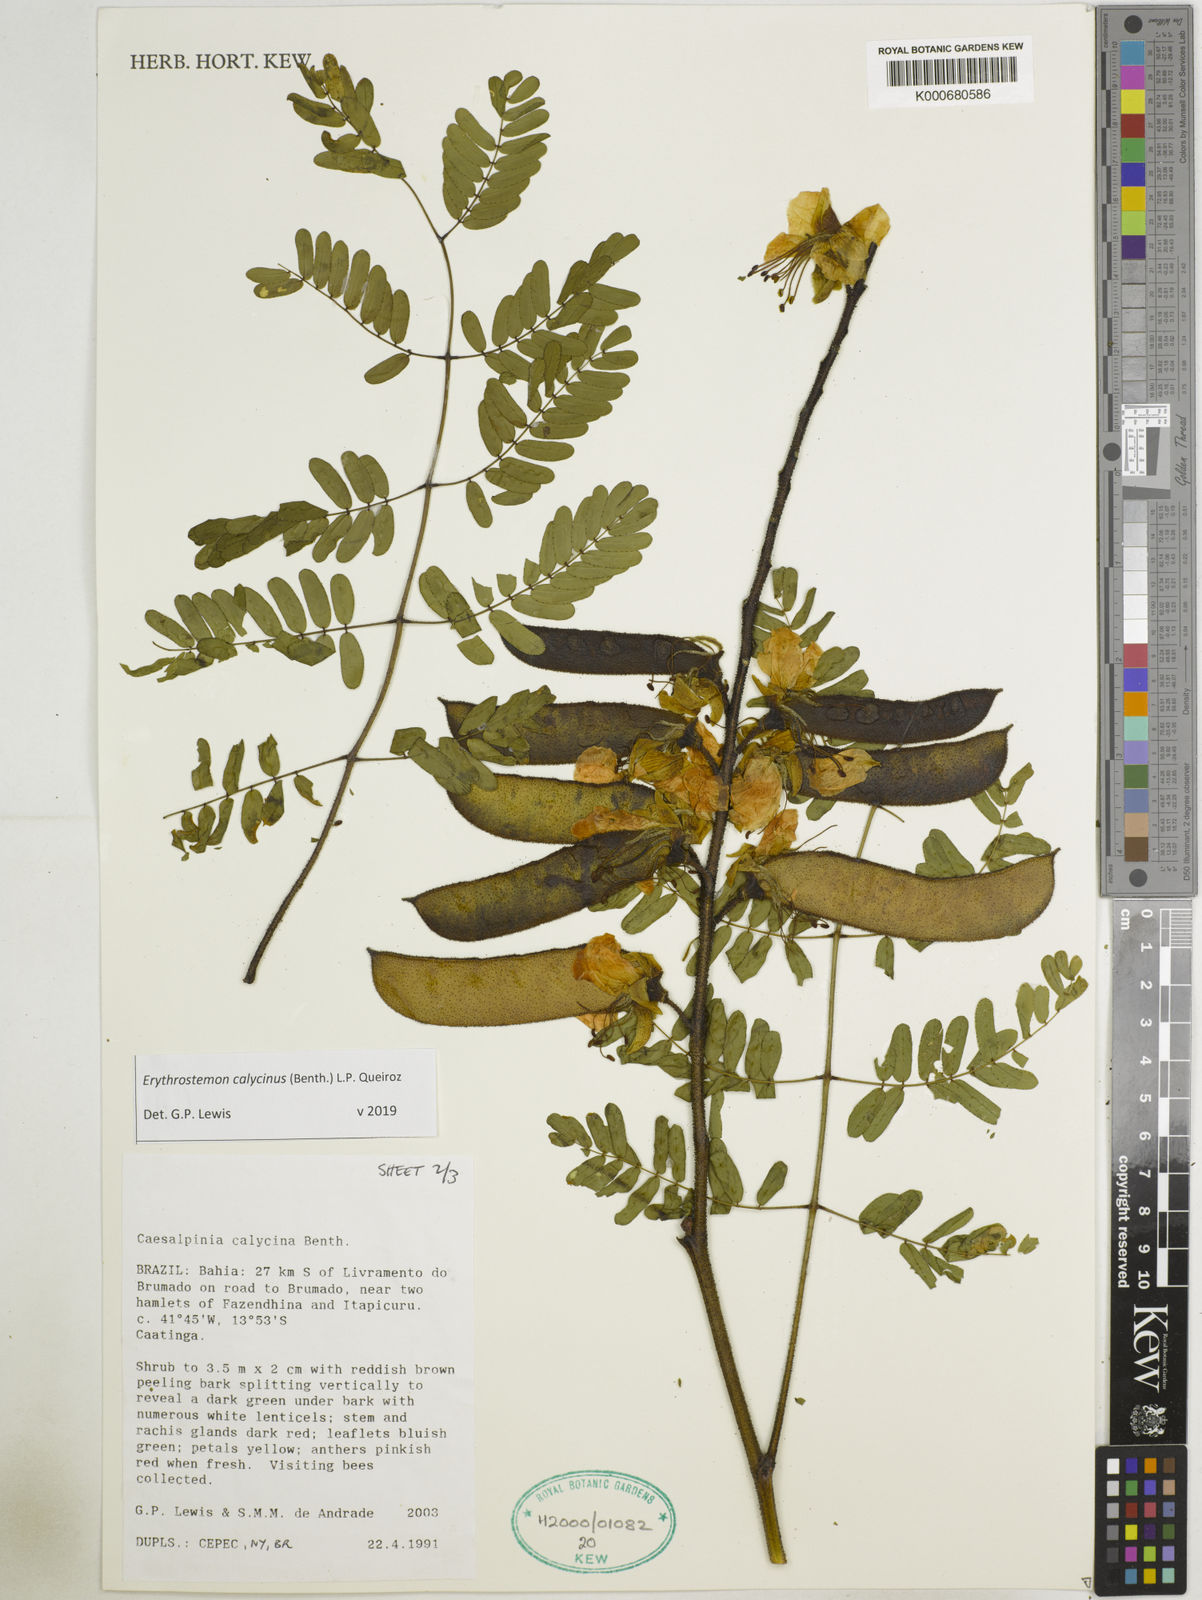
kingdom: Plantae
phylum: Tracheophyta
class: Magnoliopsida
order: Fabales
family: Fabaceae
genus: Erythrostemon
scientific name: Erythrostemon calycinus
